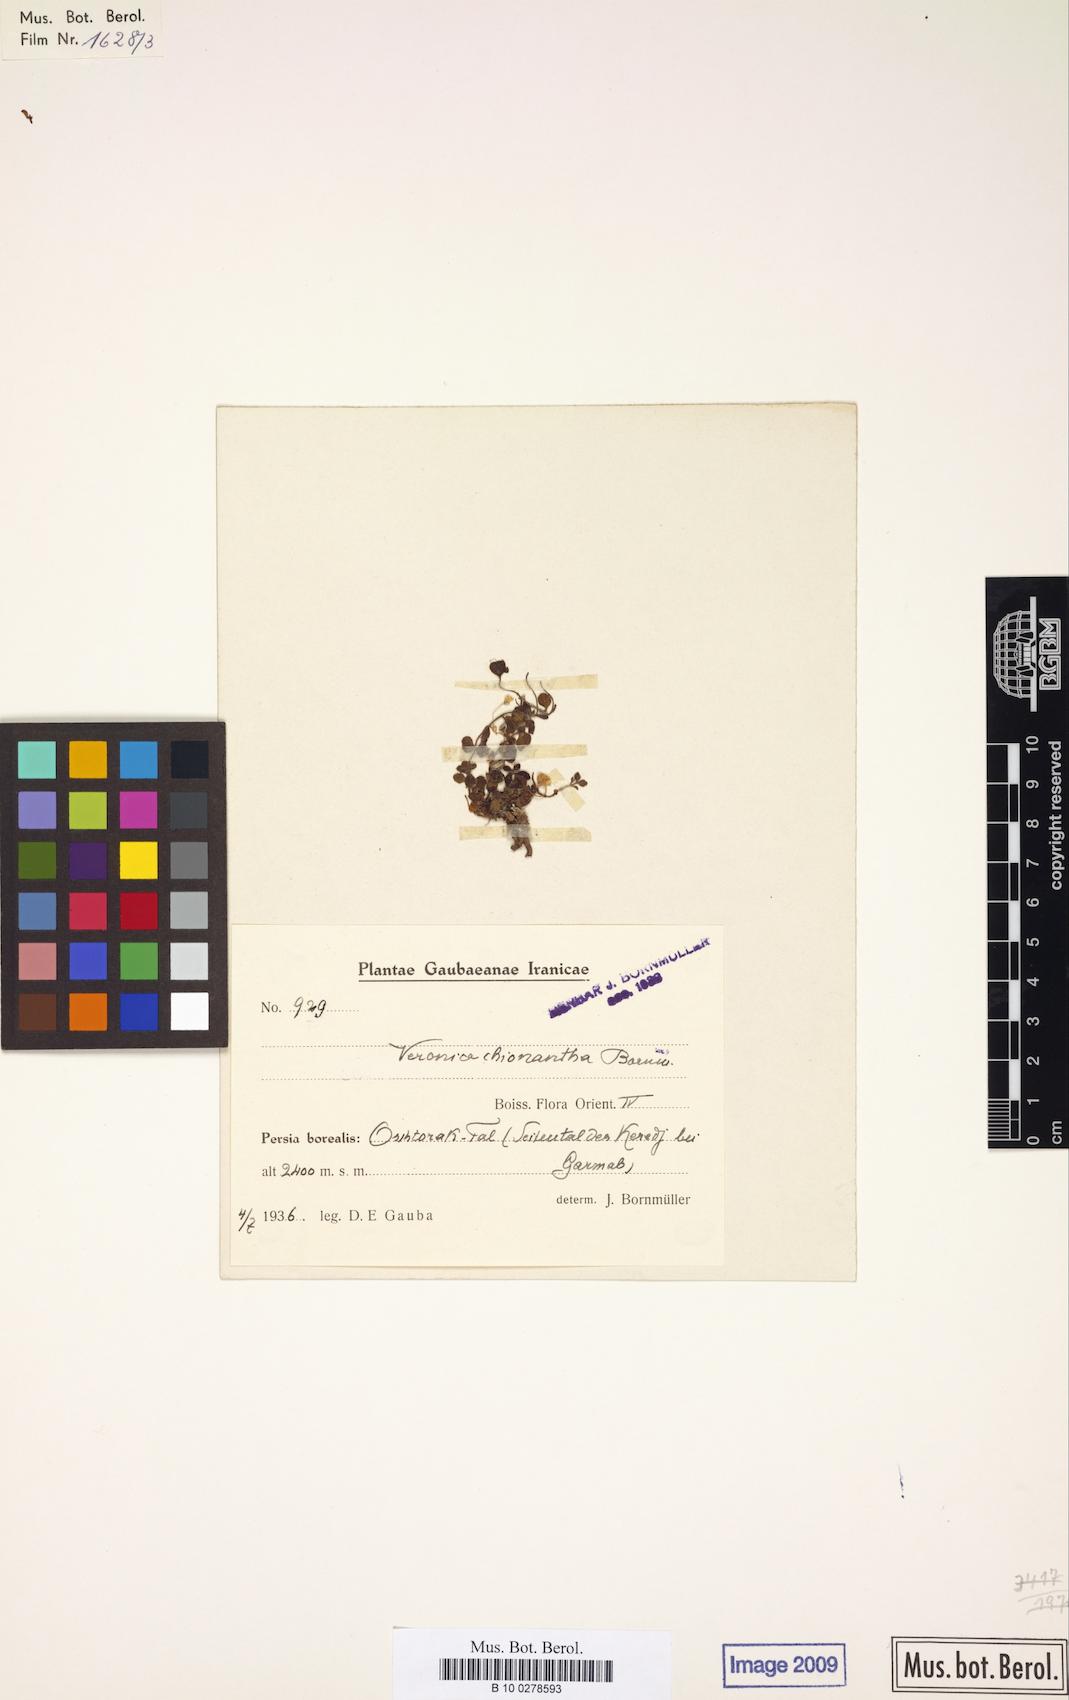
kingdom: Plantae
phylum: Tracheophyta
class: Magnoliopsida
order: Lamiales
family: Plantaginaceae
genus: Veronica
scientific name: Veronica chionantha
